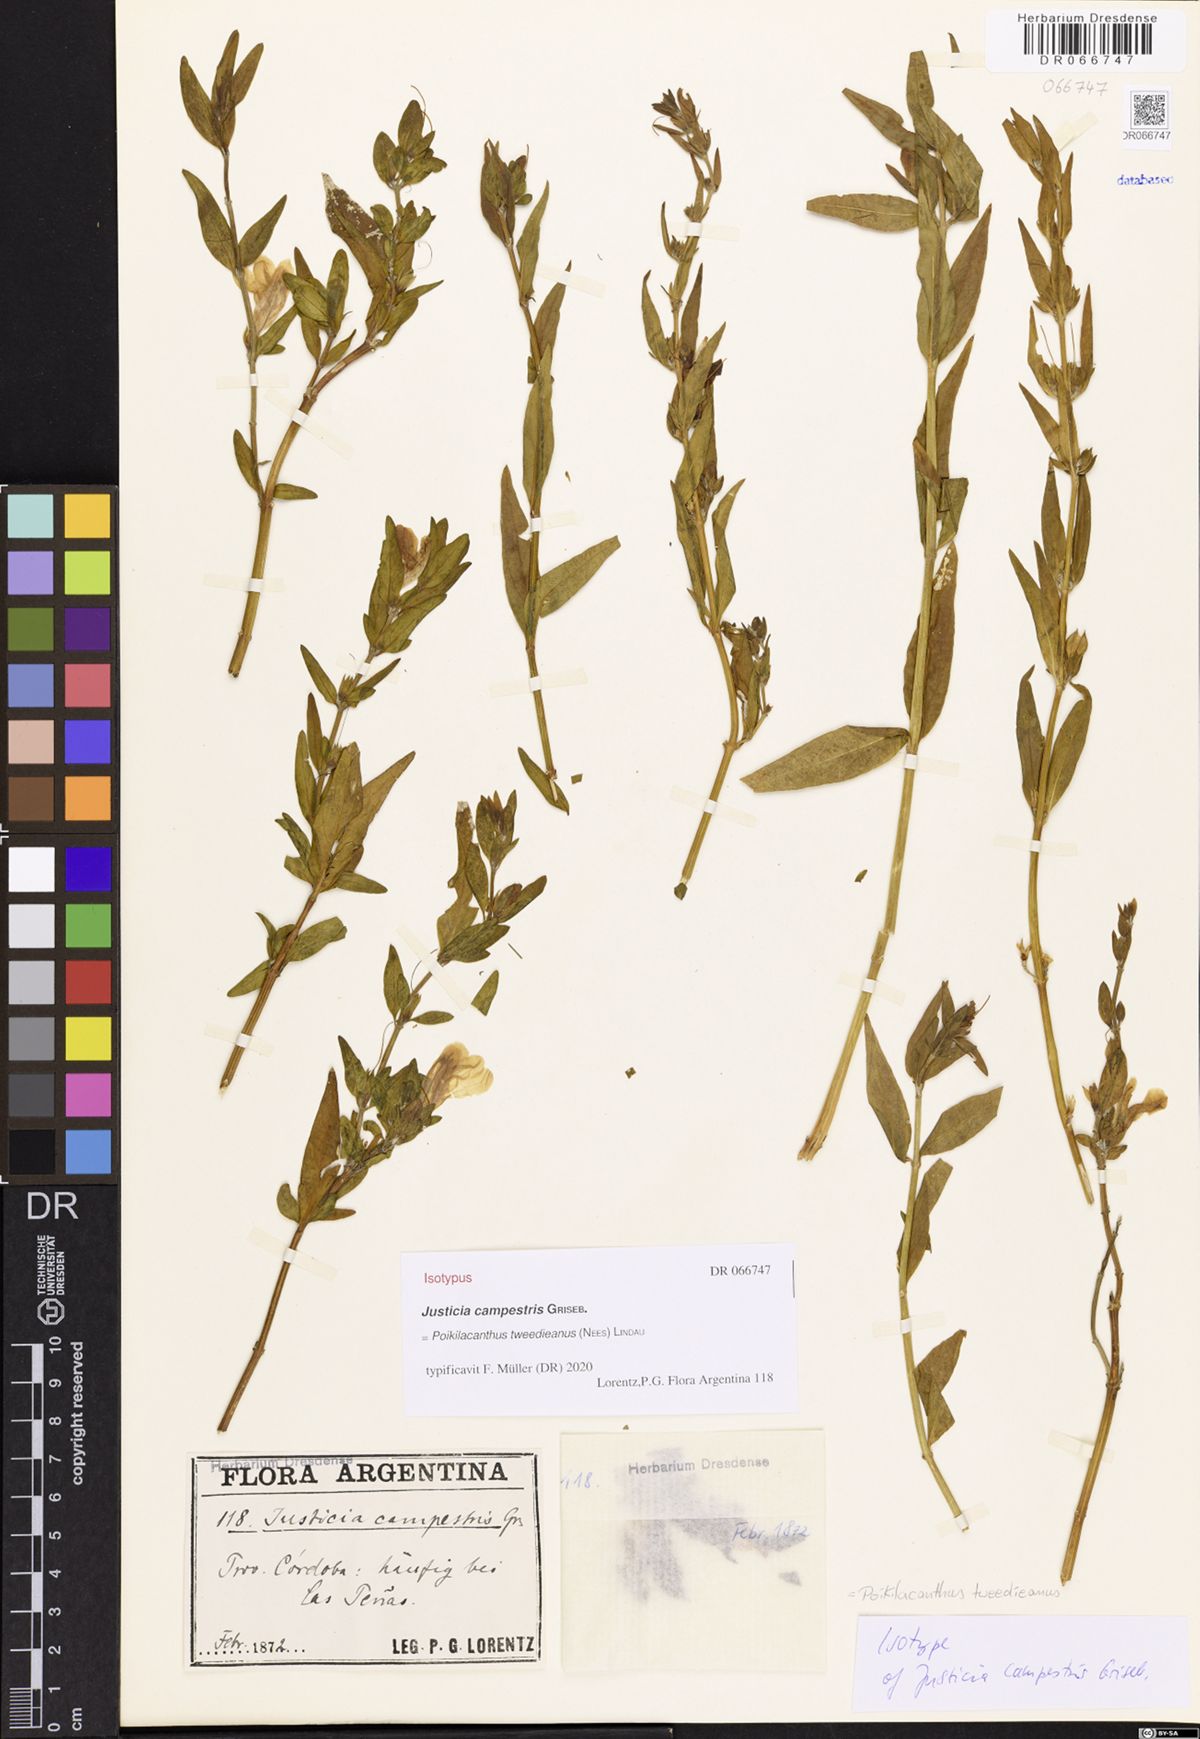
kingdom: Plantae
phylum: Tracheophyta
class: Magnoliopsida
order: Lamiales
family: Acanthaceae
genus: Poikilacanthus
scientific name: Poikilacanthus tweedianus
